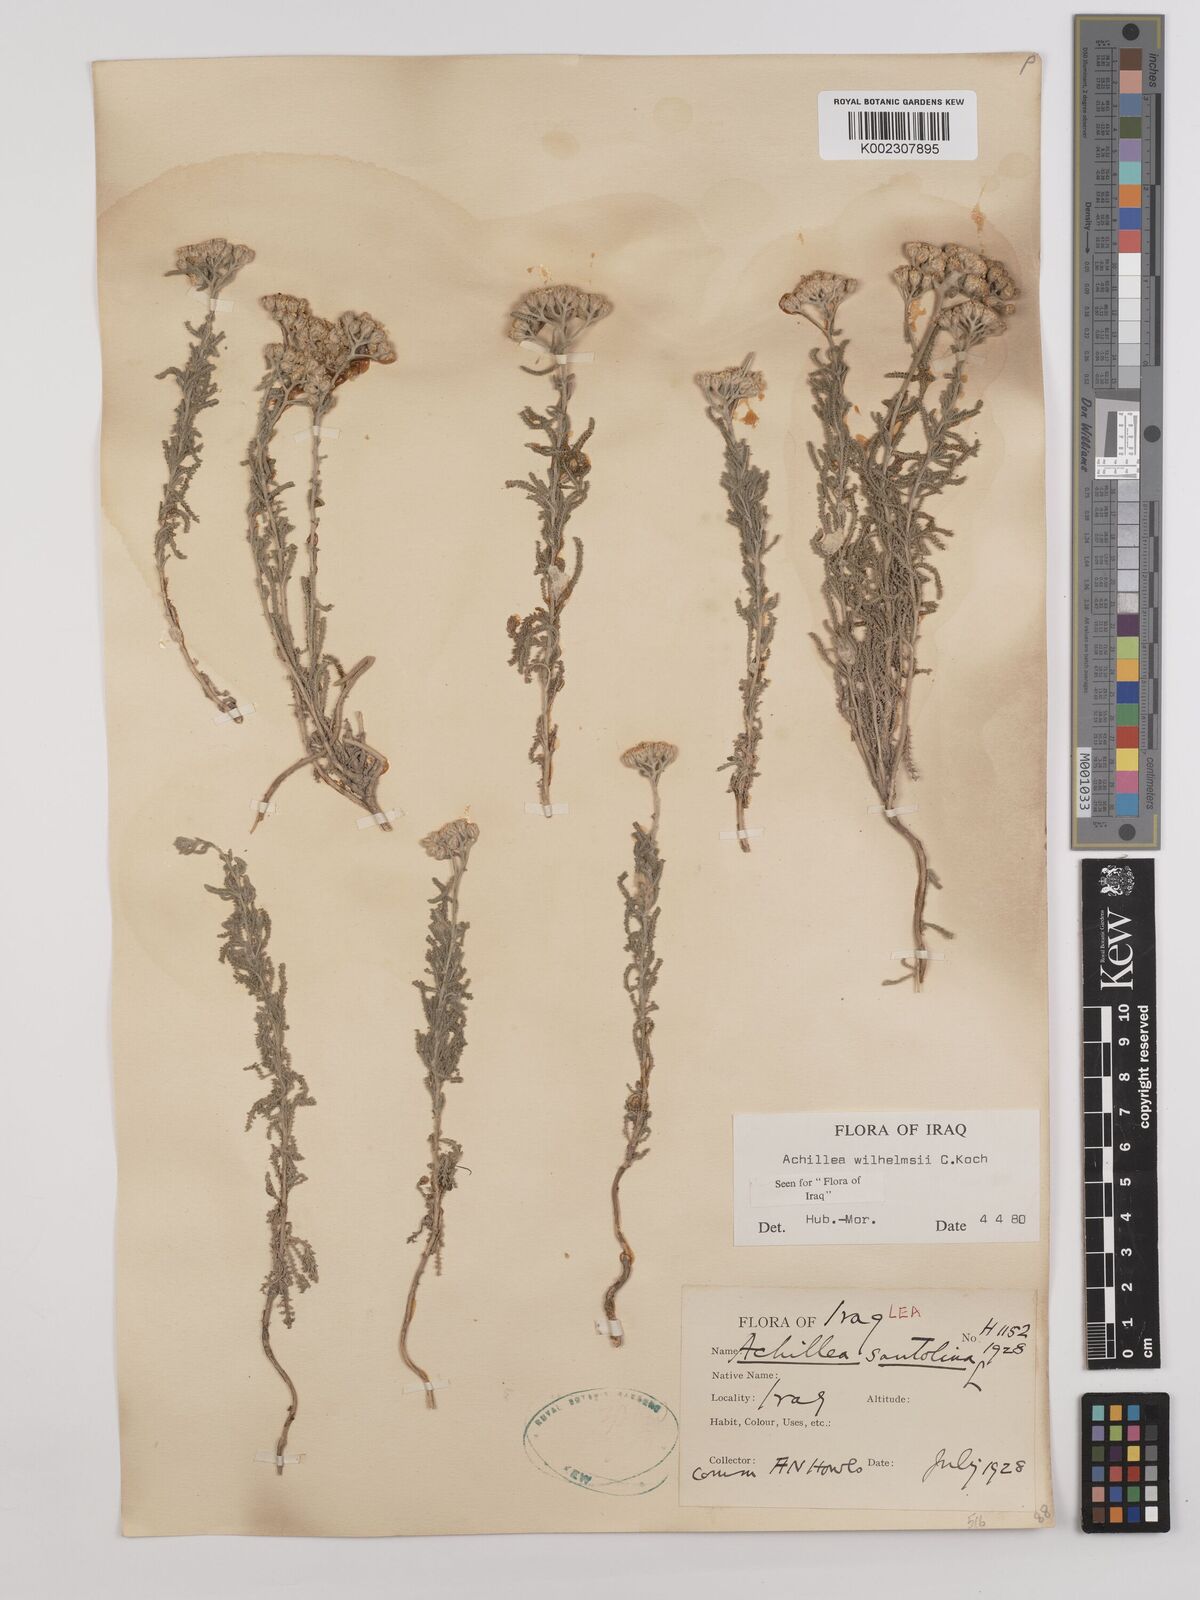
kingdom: Plantae
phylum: Tracheophyta
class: Magnoliopsida
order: Asterales
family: Asteraceae
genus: Achillea
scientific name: Achillea wilhelmsii
